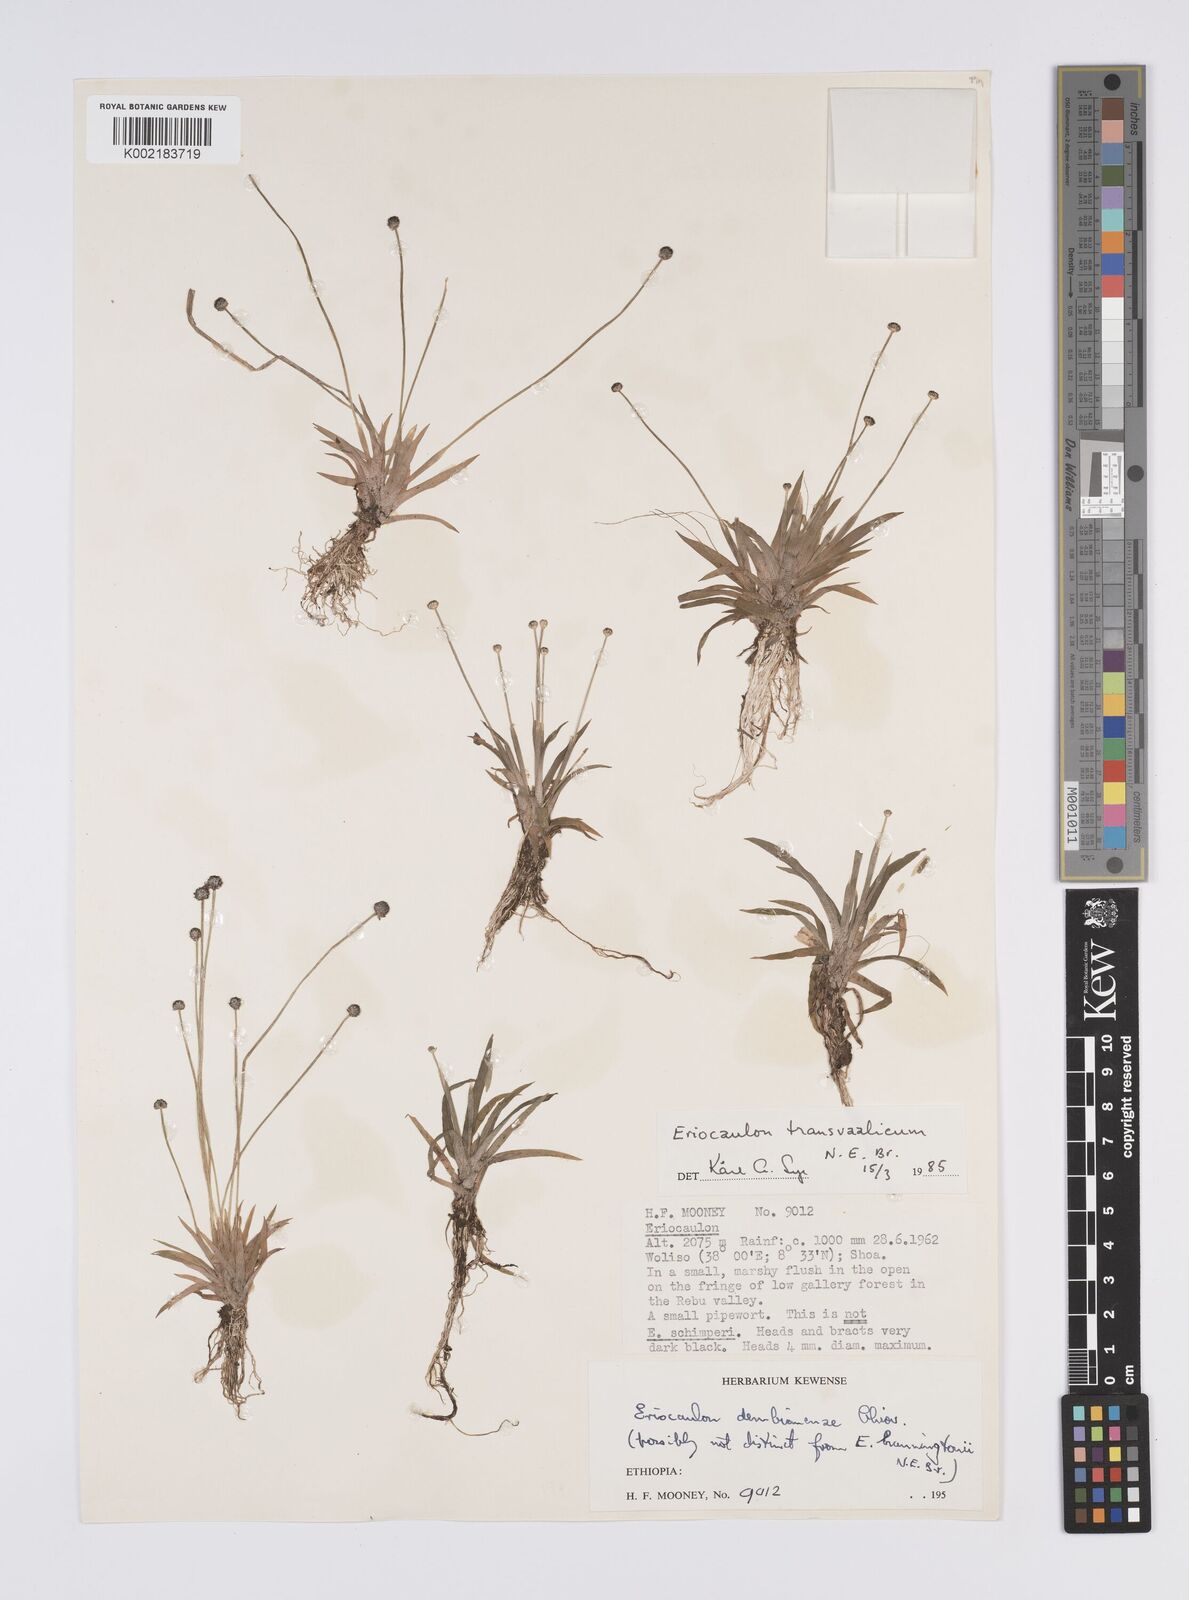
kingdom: Plantae
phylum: Tracheophyta
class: Liliopsida
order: Poales
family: Eriocaulaceae
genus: Eriocaulon
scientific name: Eriocaulon transvaalicum
